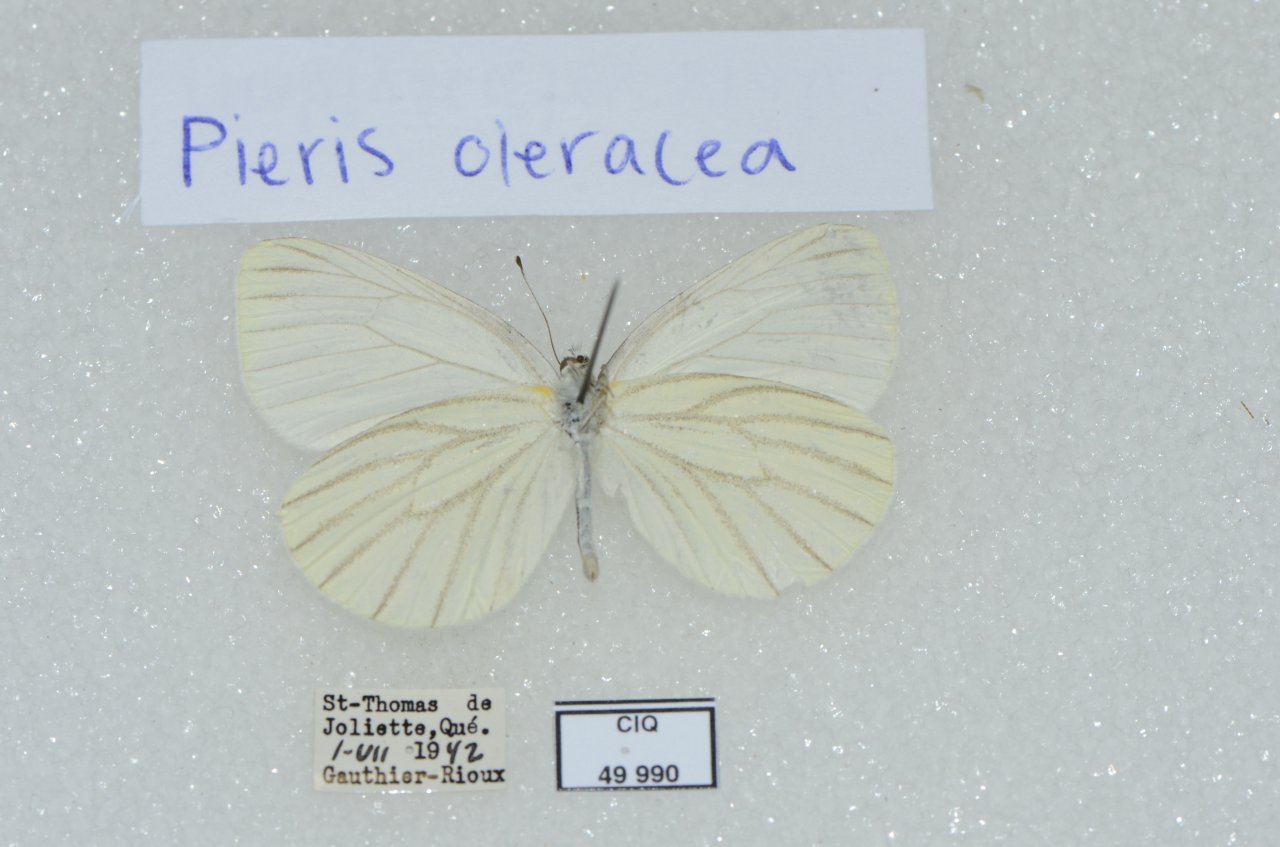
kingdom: Animalia
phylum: Arthropoda
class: Insecta
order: Lepidoptera
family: Pieridae
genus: Pieris
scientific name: Pieris oleracea
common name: Mustard White
